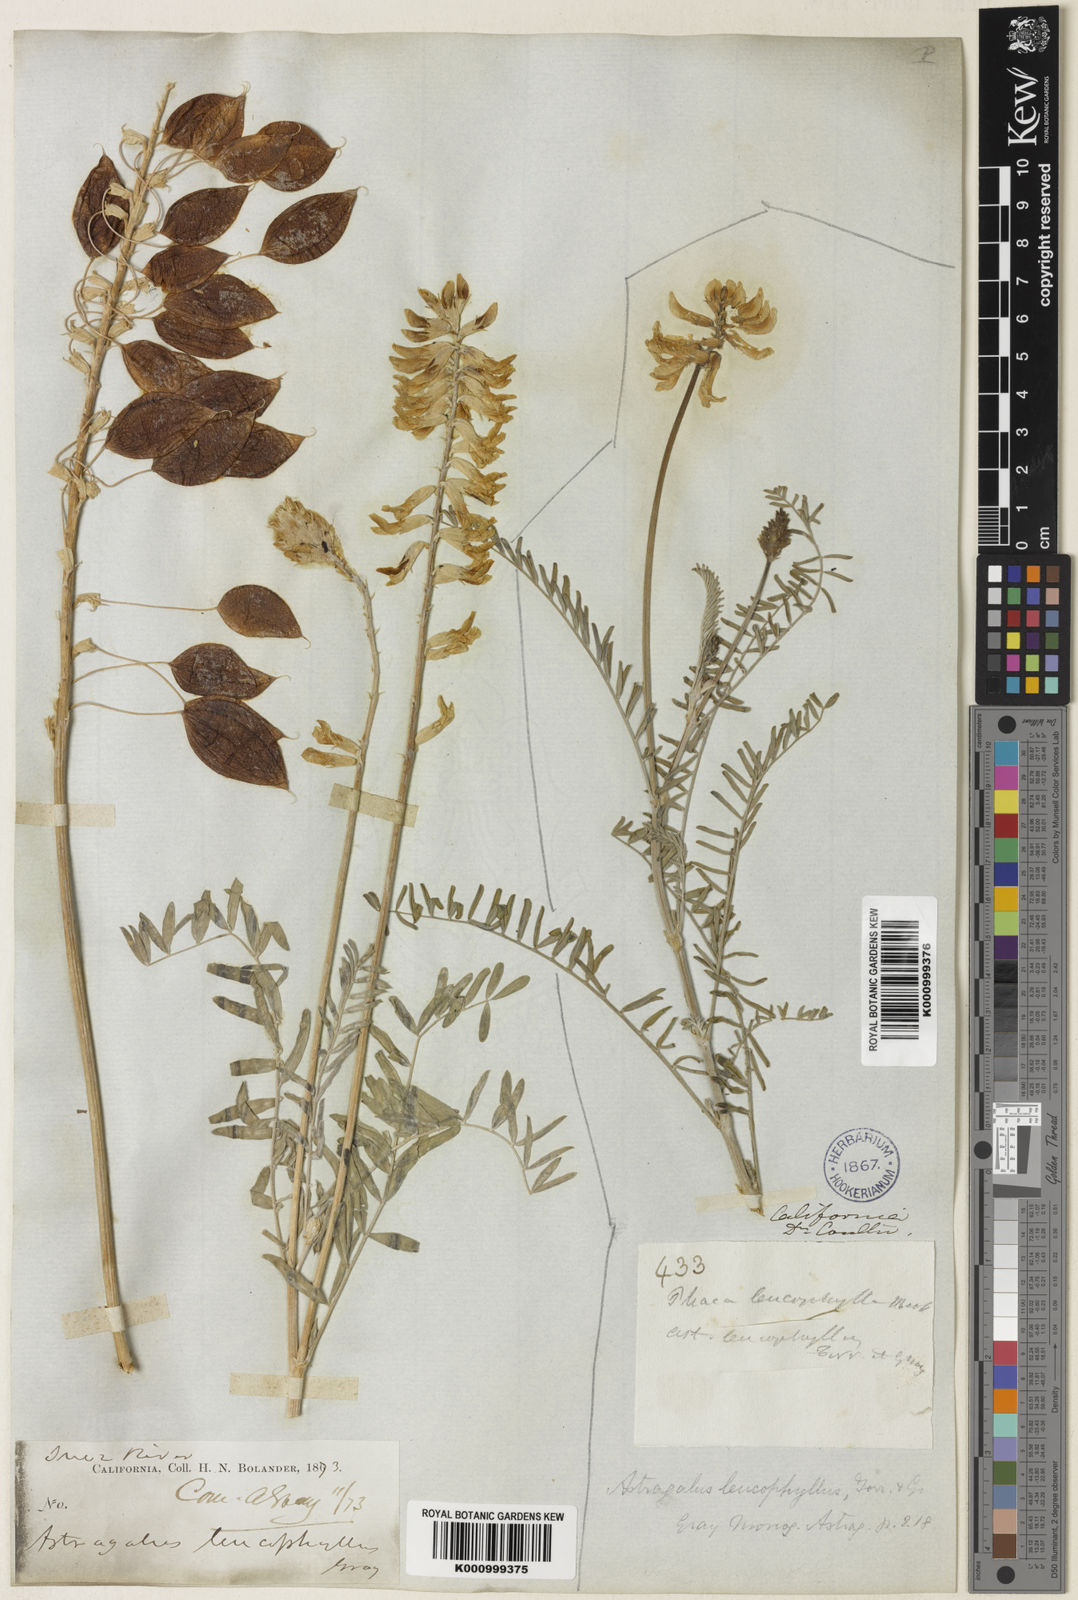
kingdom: Plantae
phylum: Tracheophyta
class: Magnoliopsida
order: Fabales
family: Fabaceae
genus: Astragalus
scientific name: Astragalus asymmetricus
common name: Horse locoweed
